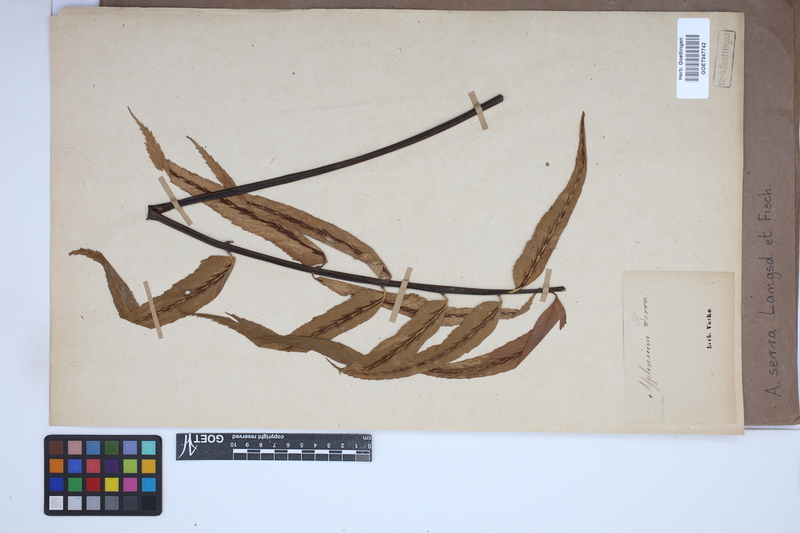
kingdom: Plantae
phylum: Tracheophyta
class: Polypodiopsida
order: Polypodiales
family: Aspleniaceae
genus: Asplenium
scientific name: Asplenium serra
